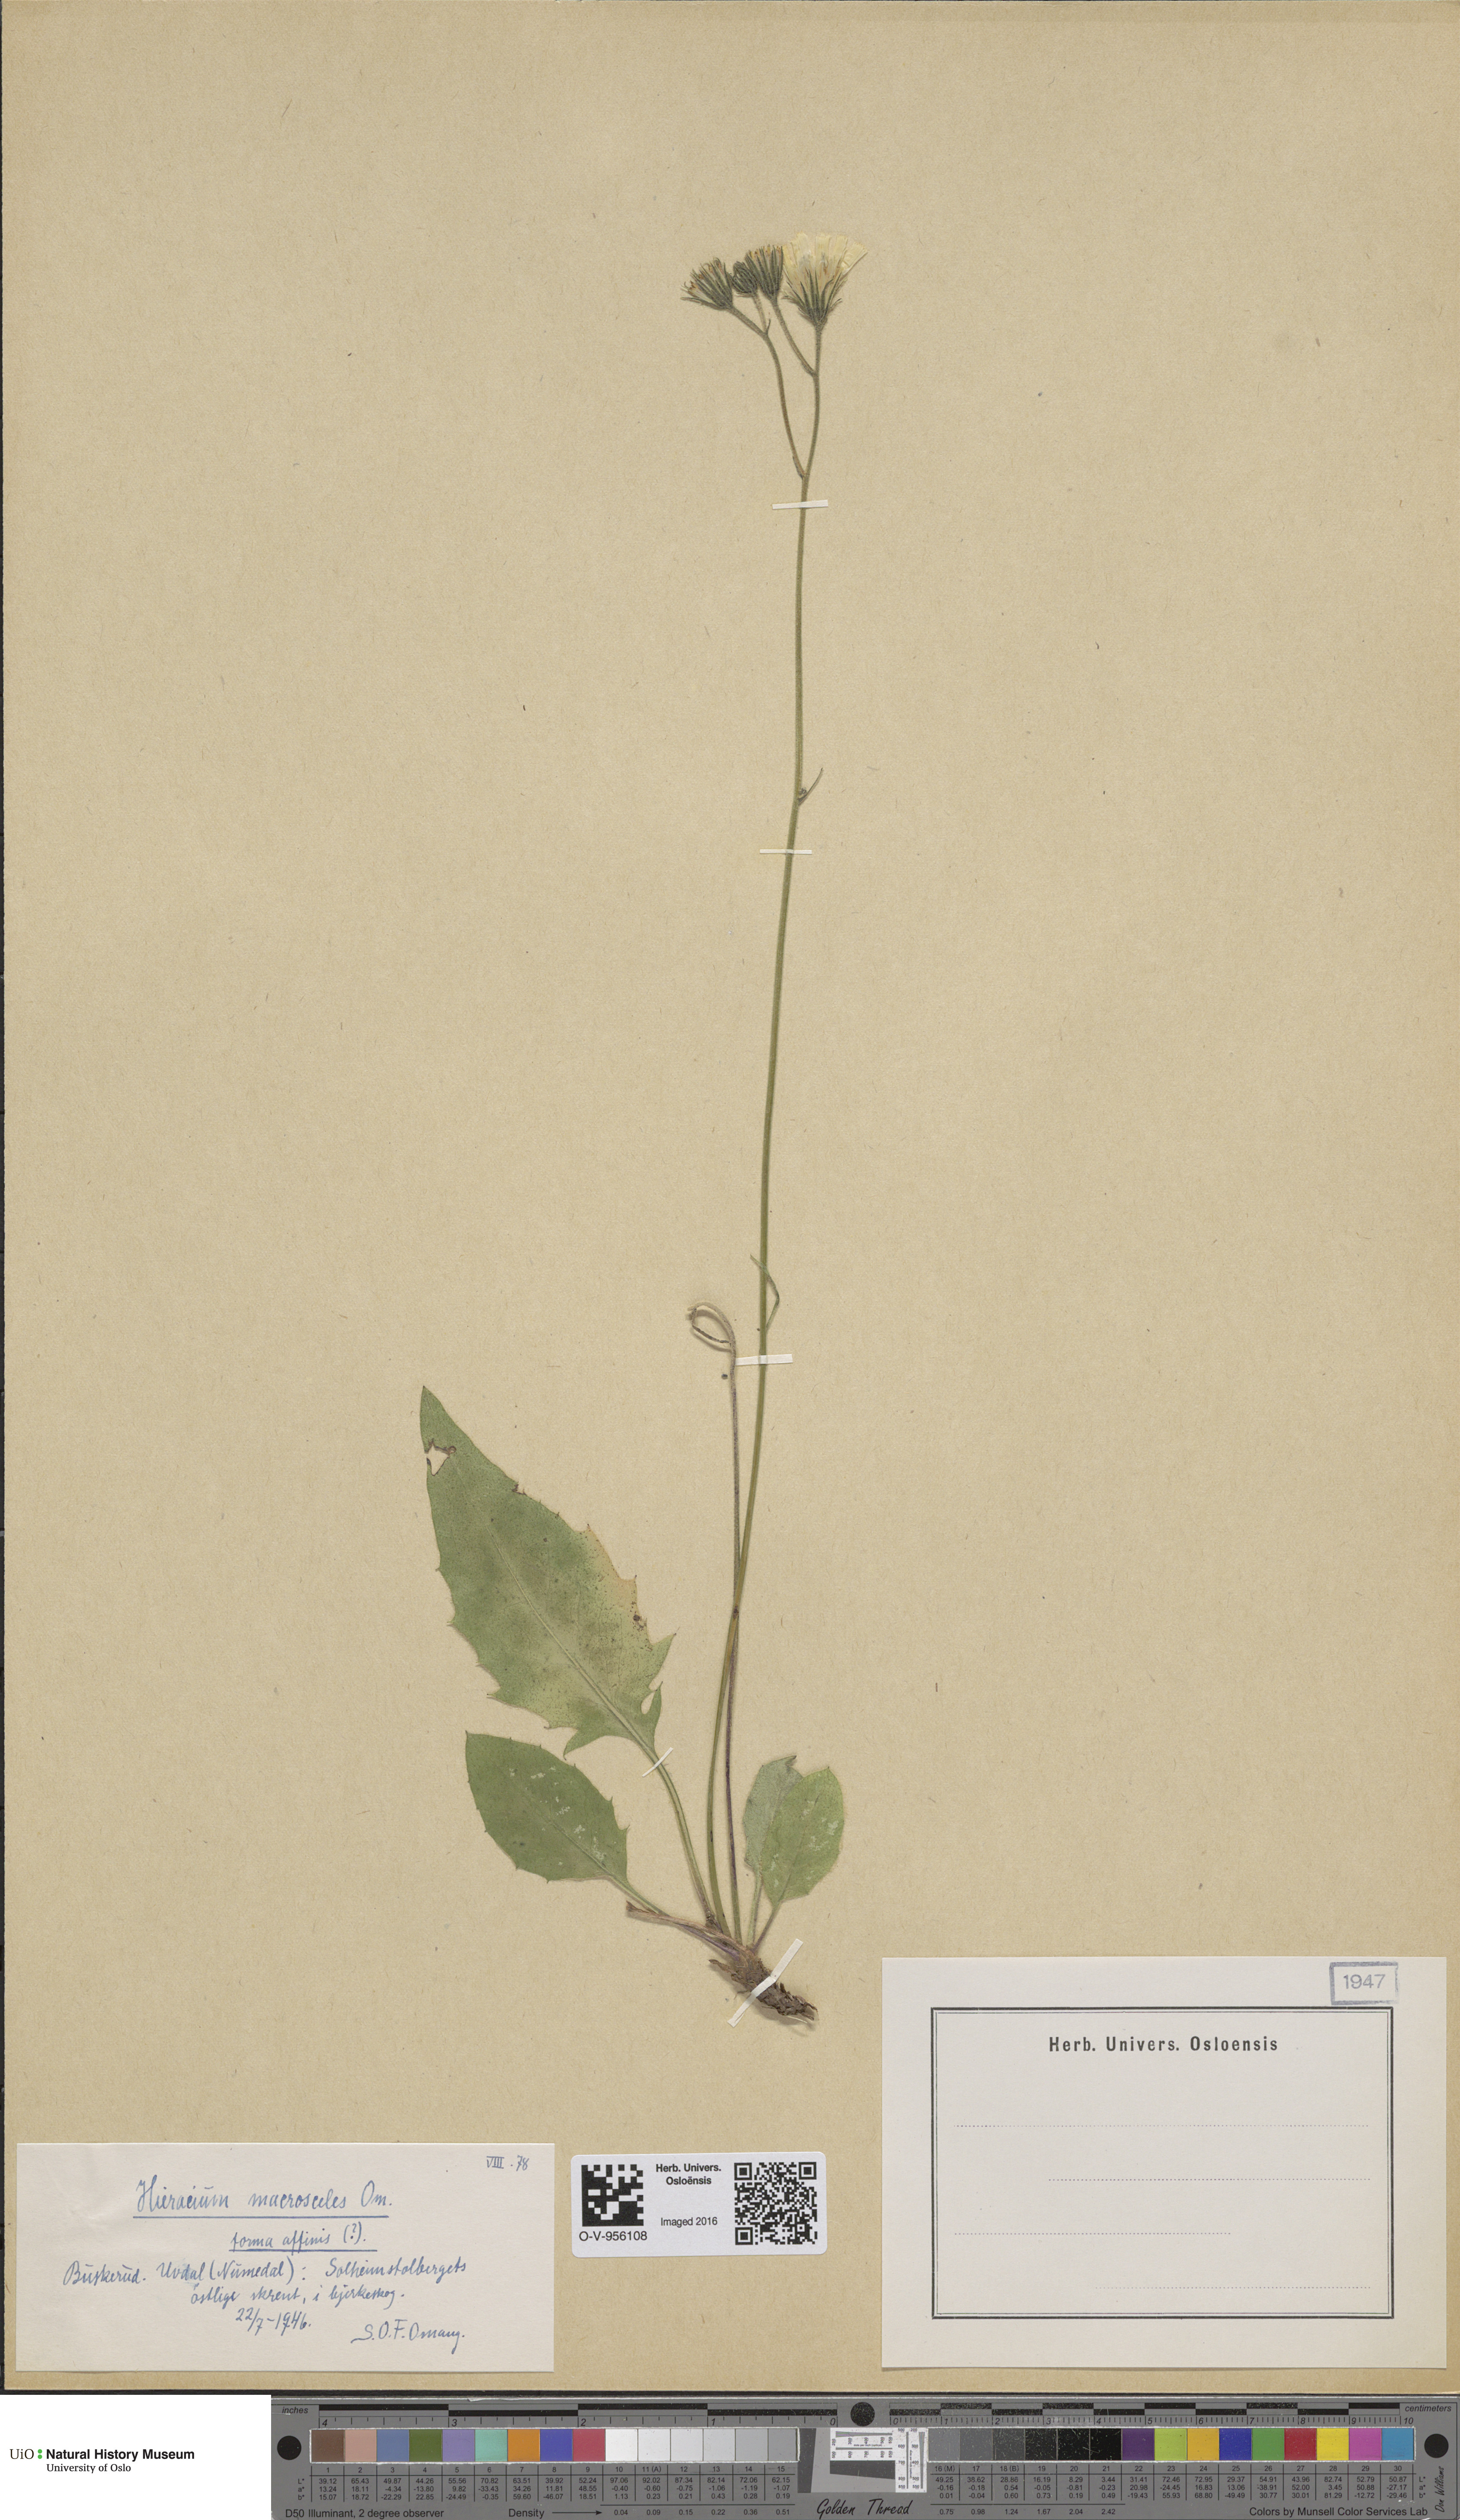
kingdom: Plantae
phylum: Tracheophyta
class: Magnoliopsida
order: Asterales
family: Asteraceae
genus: Hieracium
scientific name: Hieracium
